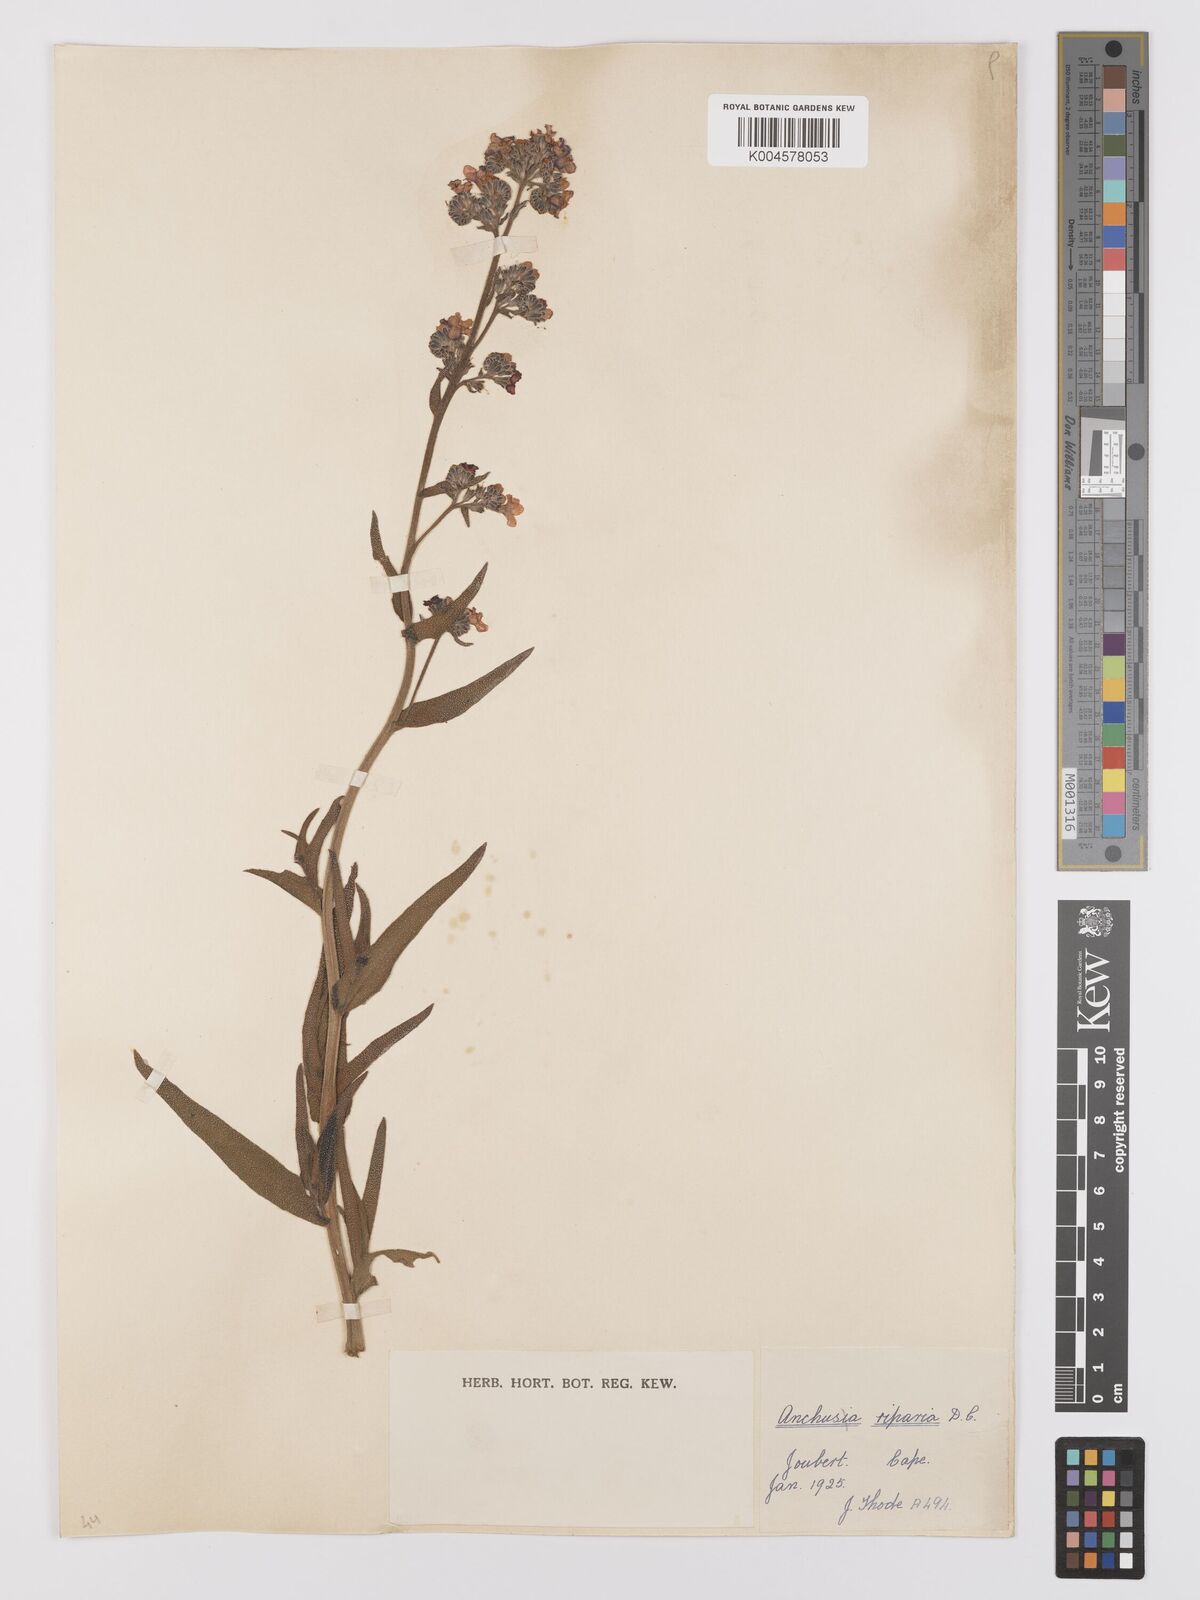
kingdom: Plantae
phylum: Tracheophyta
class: Magnoliopsida
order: Boraginales
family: Boraginaceae
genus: Anchusa
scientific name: Anchusa capensis
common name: Cape bugloss
